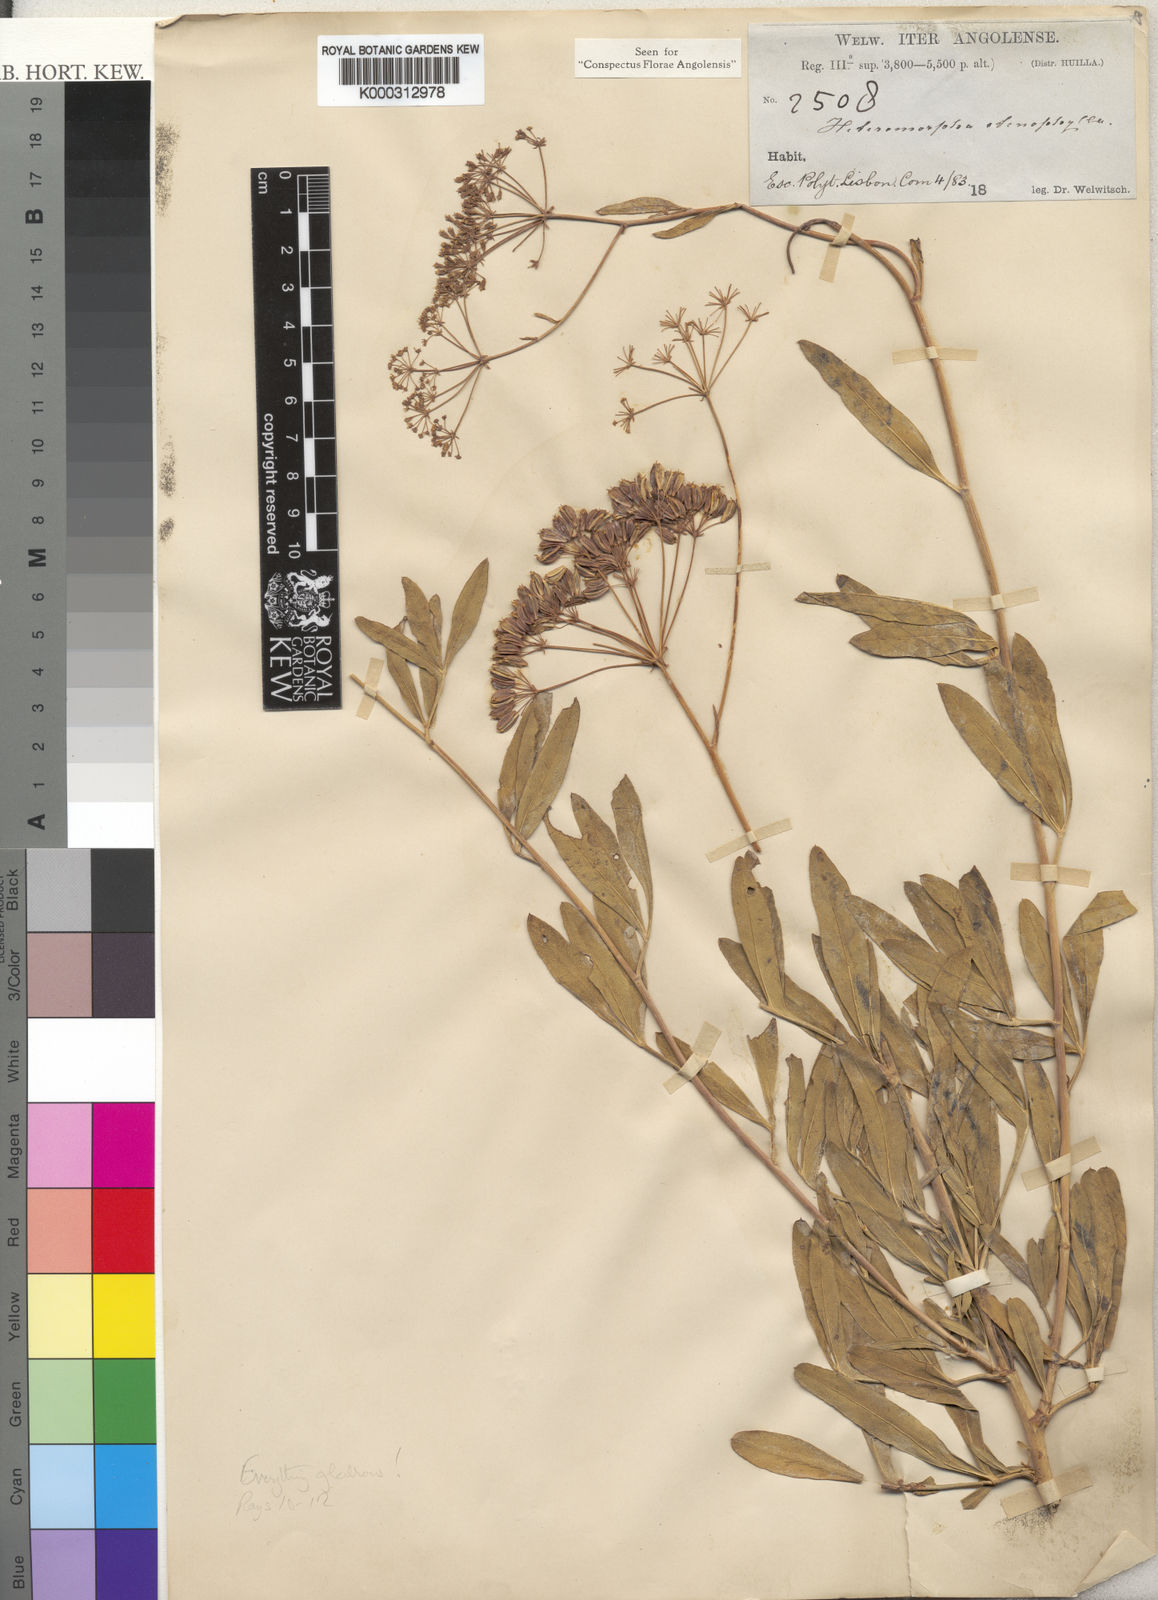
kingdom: Plantae
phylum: Tracheophyta
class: Magnoliopsida
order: Apiales
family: Apiaceae
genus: Heteromorpha
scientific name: Heteromorpha stenophylla
